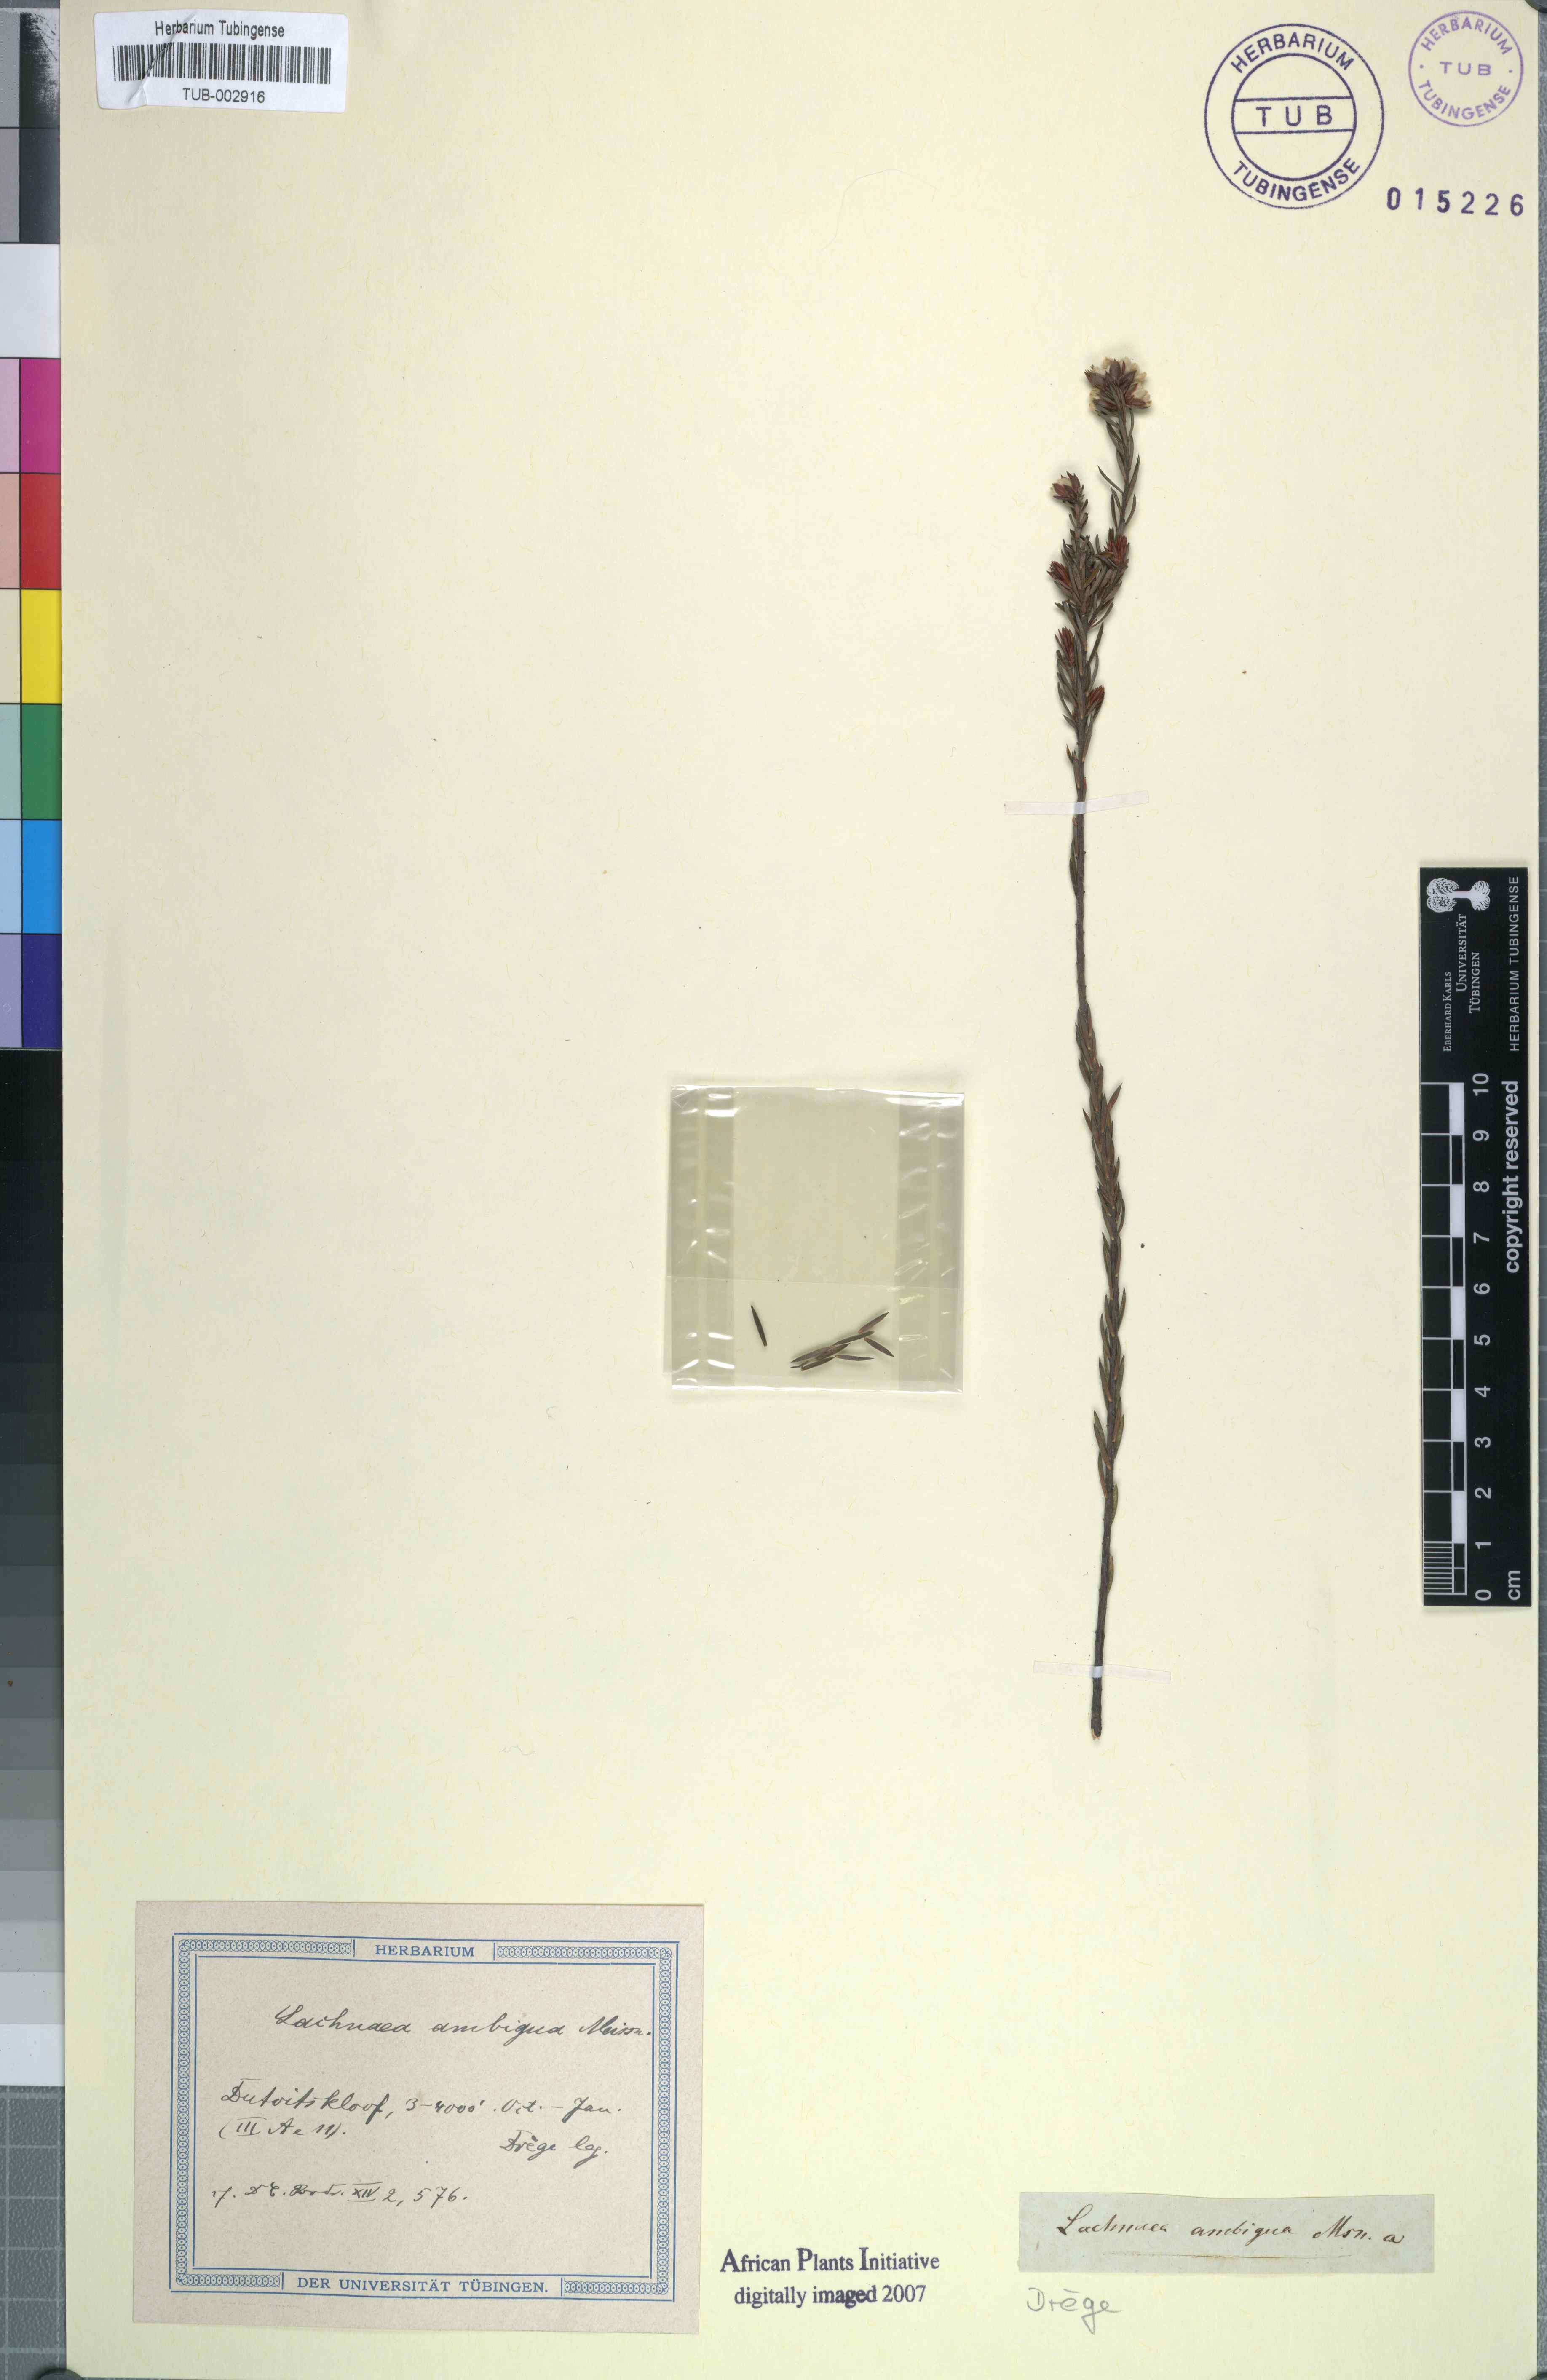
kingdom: Plantae
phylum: Tracheophyta
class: Magnoliopsida
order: Malvales
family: Thymelaeaceae
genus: Lachnaea
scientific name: Lachnaea nervosa
